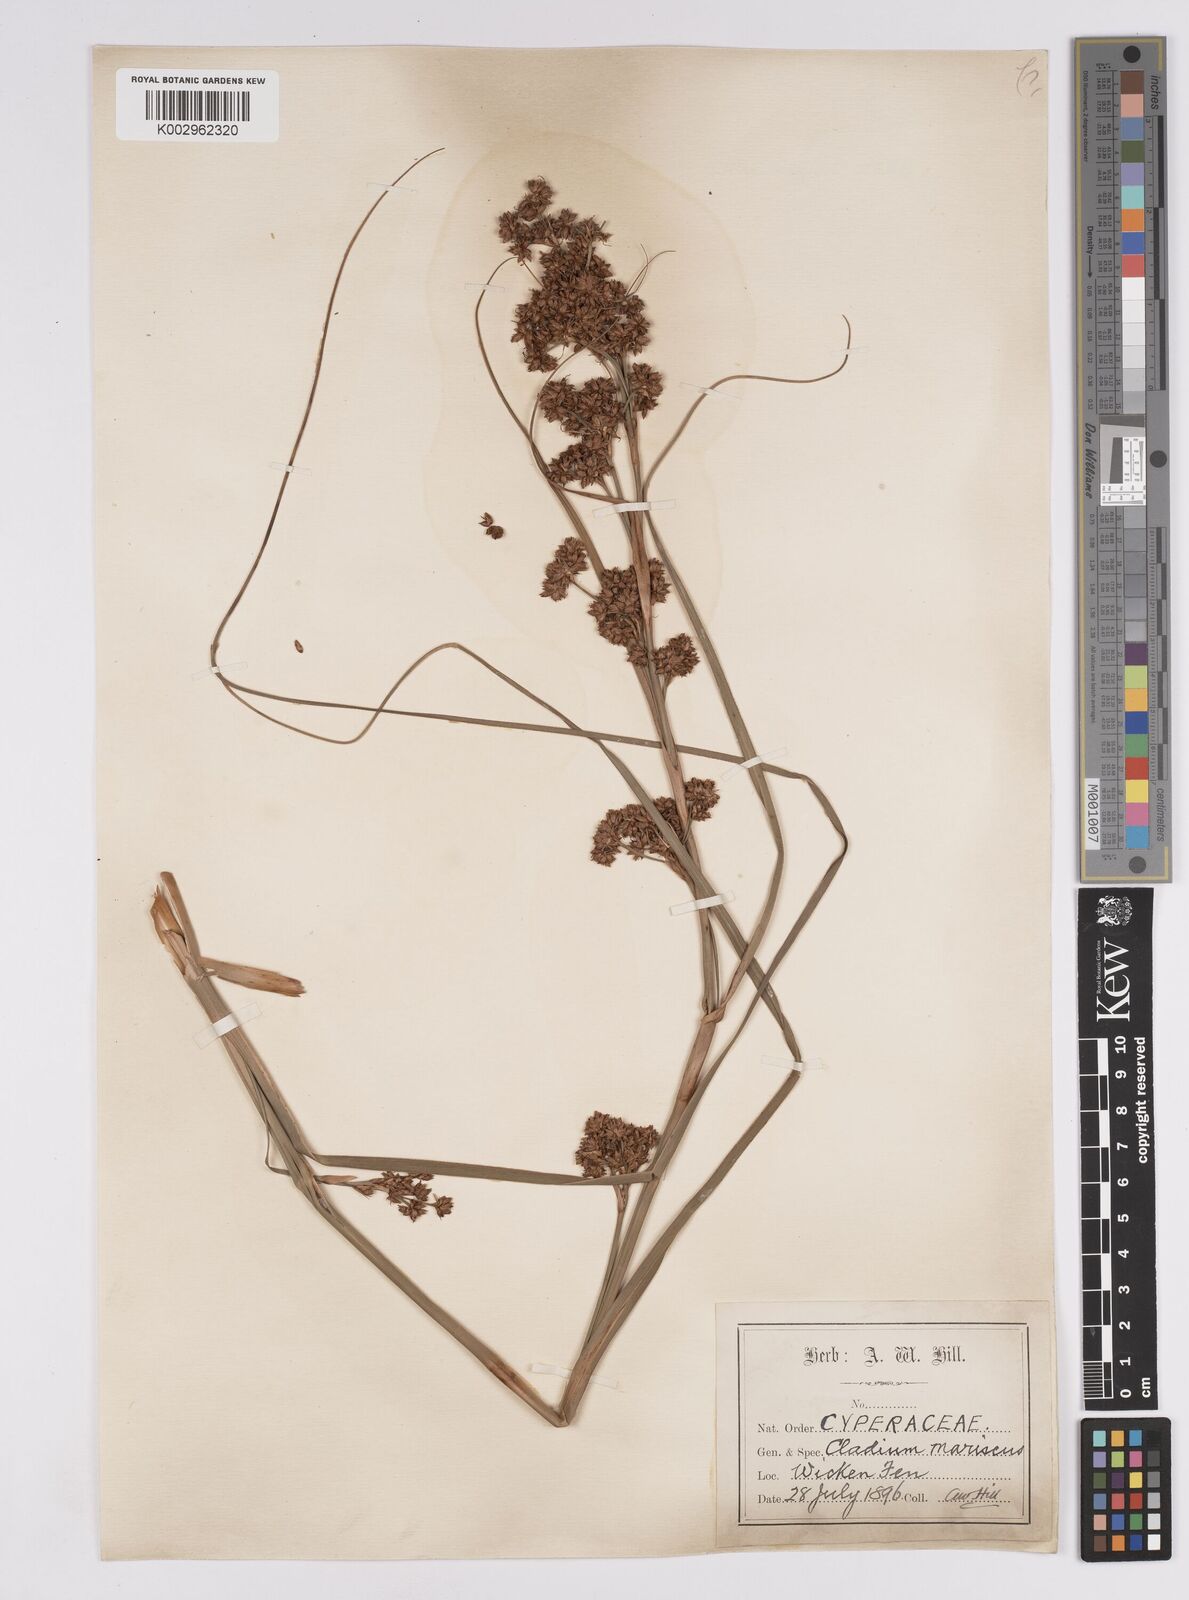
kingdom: Plantae
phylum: Tracheophyta
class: Liliopsida
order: Poales
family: Cyperaceae
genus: Cladium
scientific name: Cladium mariscus
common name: Great fen-sedge
